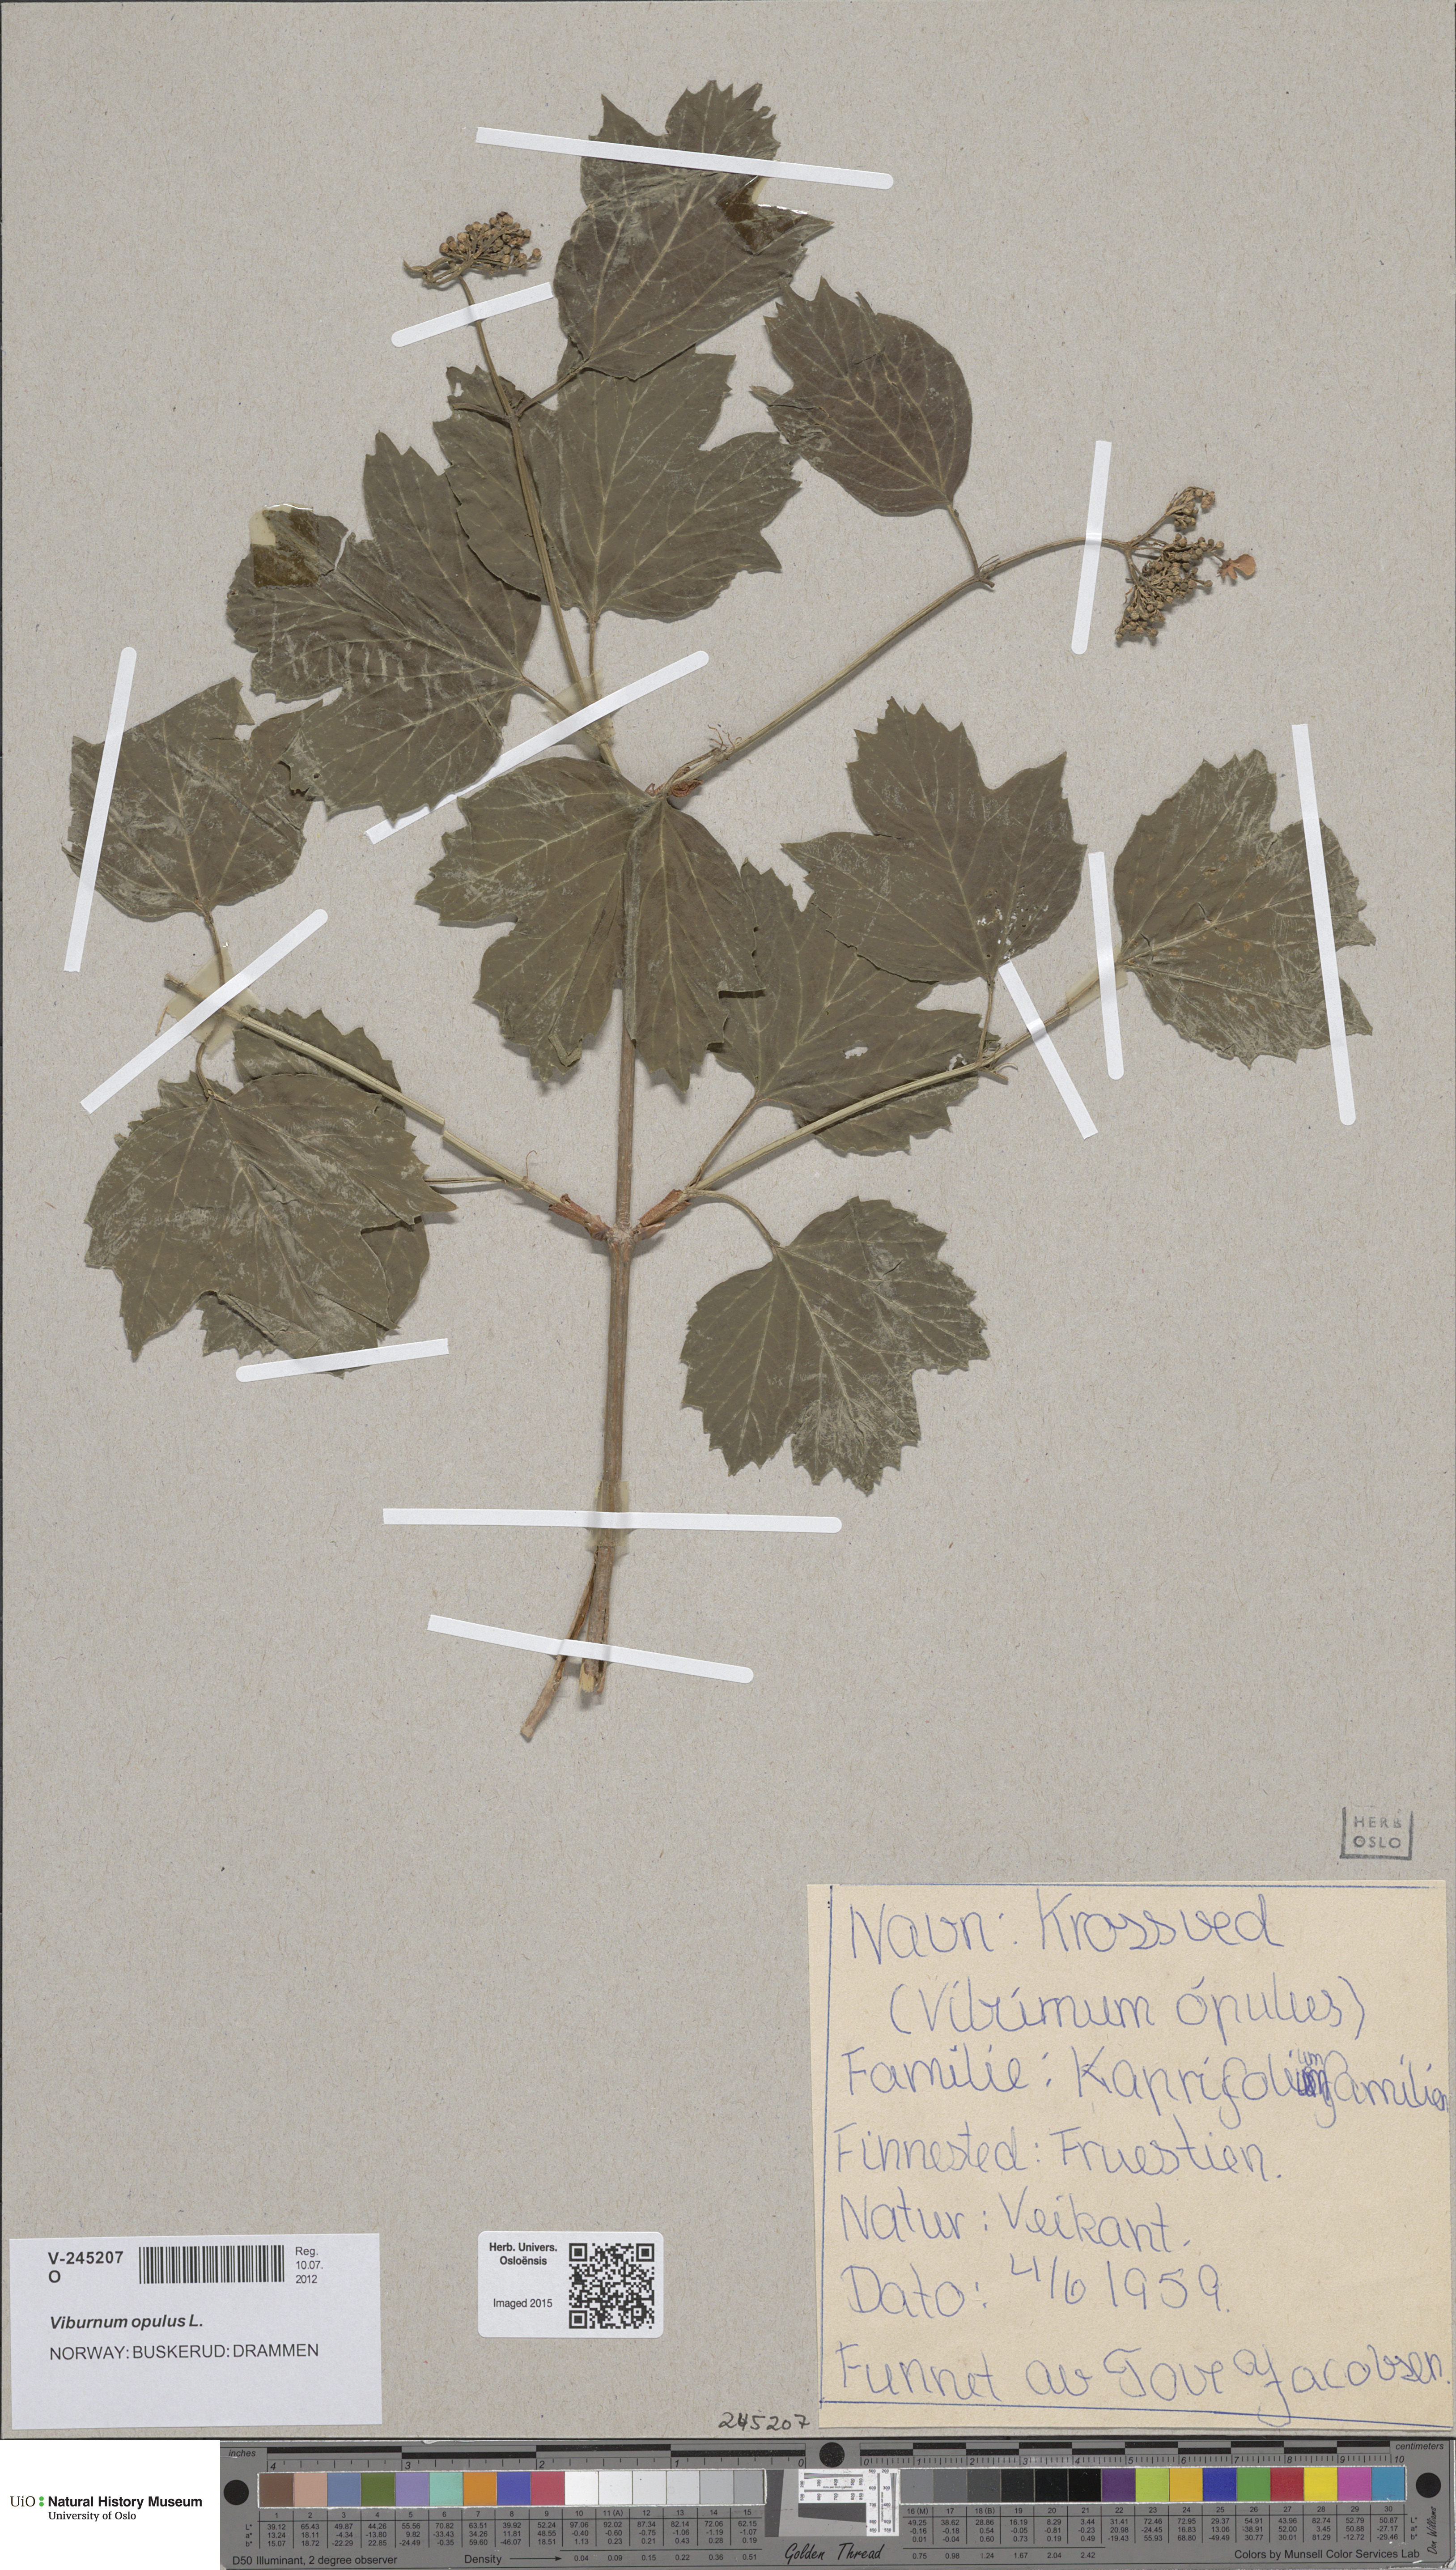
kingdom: Plantae
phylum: Tracheophyta
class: Magnoliopsida
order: Dipsacales
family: Viburnaceae
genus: Viburnum
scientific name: Viburnum opulus
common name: Guelder-rose
